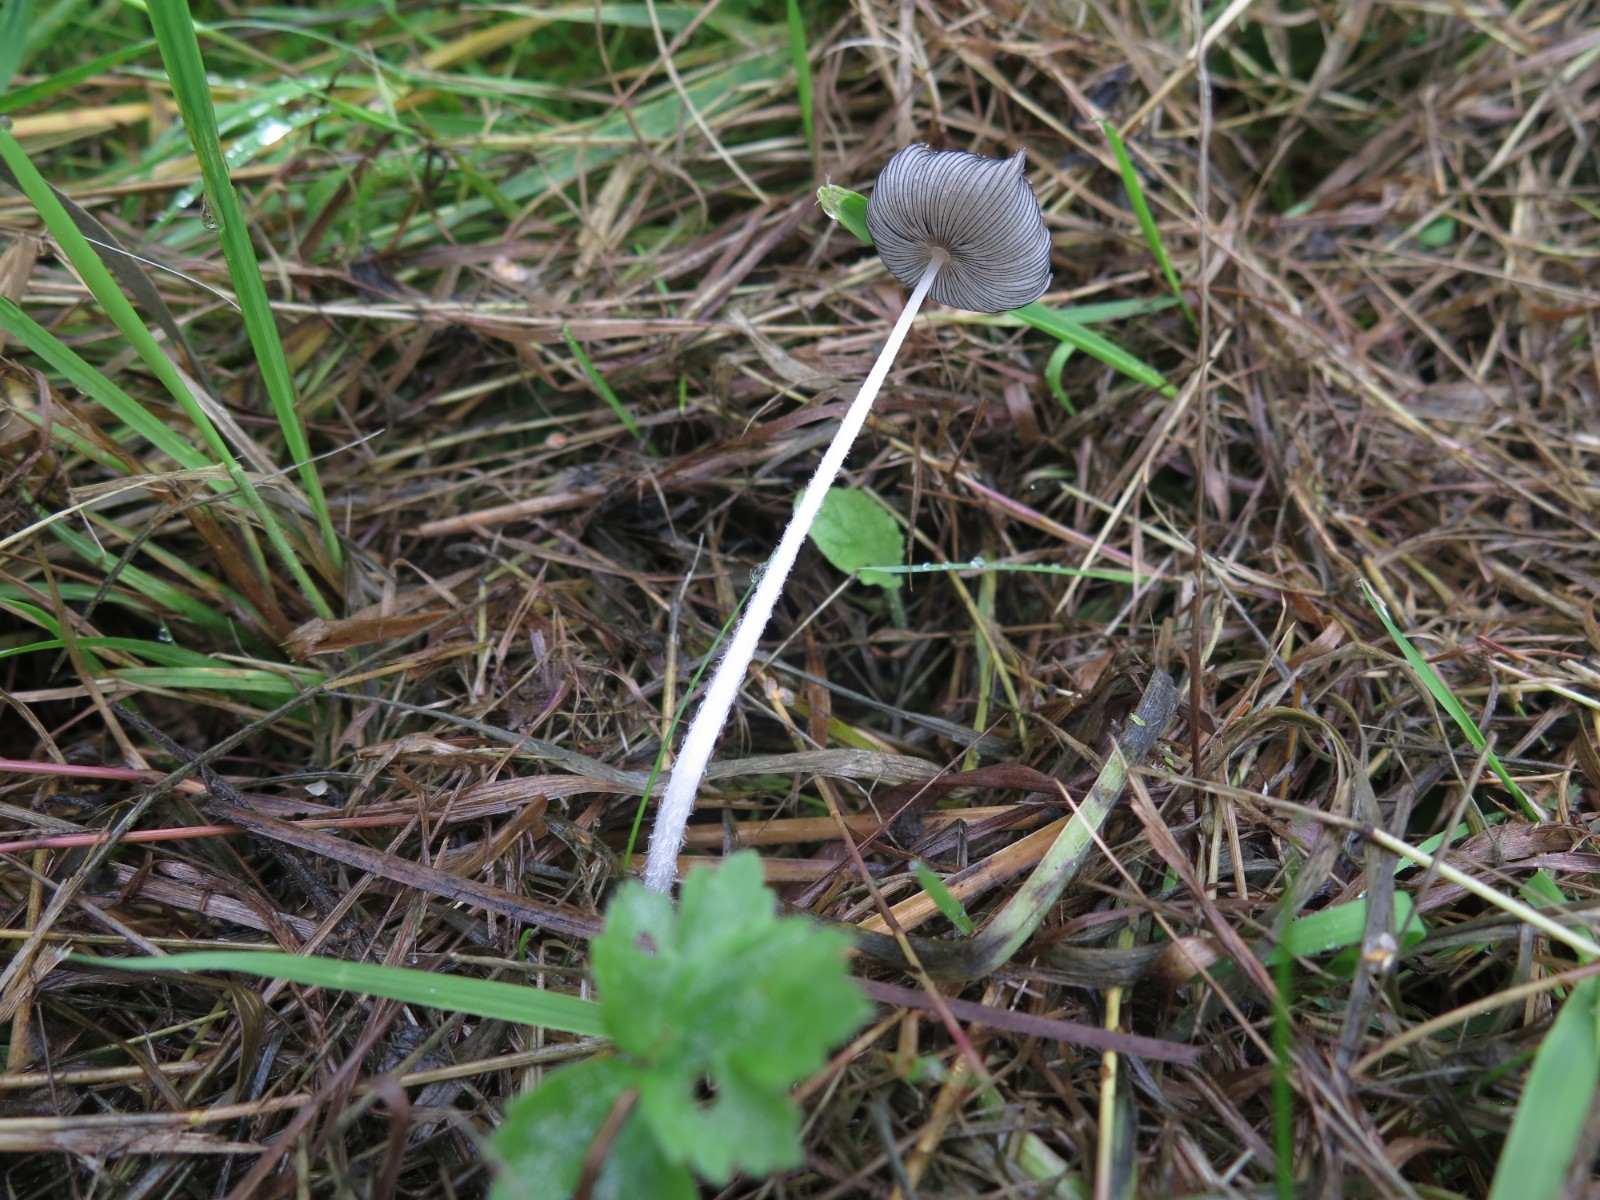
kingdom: Fungi
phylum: Basidiomycota
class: Agaricomycetes
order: Agaricales
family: Psathyrellaceae
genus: Coprinopsis
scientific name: Coprinopsis lagopus
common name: dunstokket blækhat
